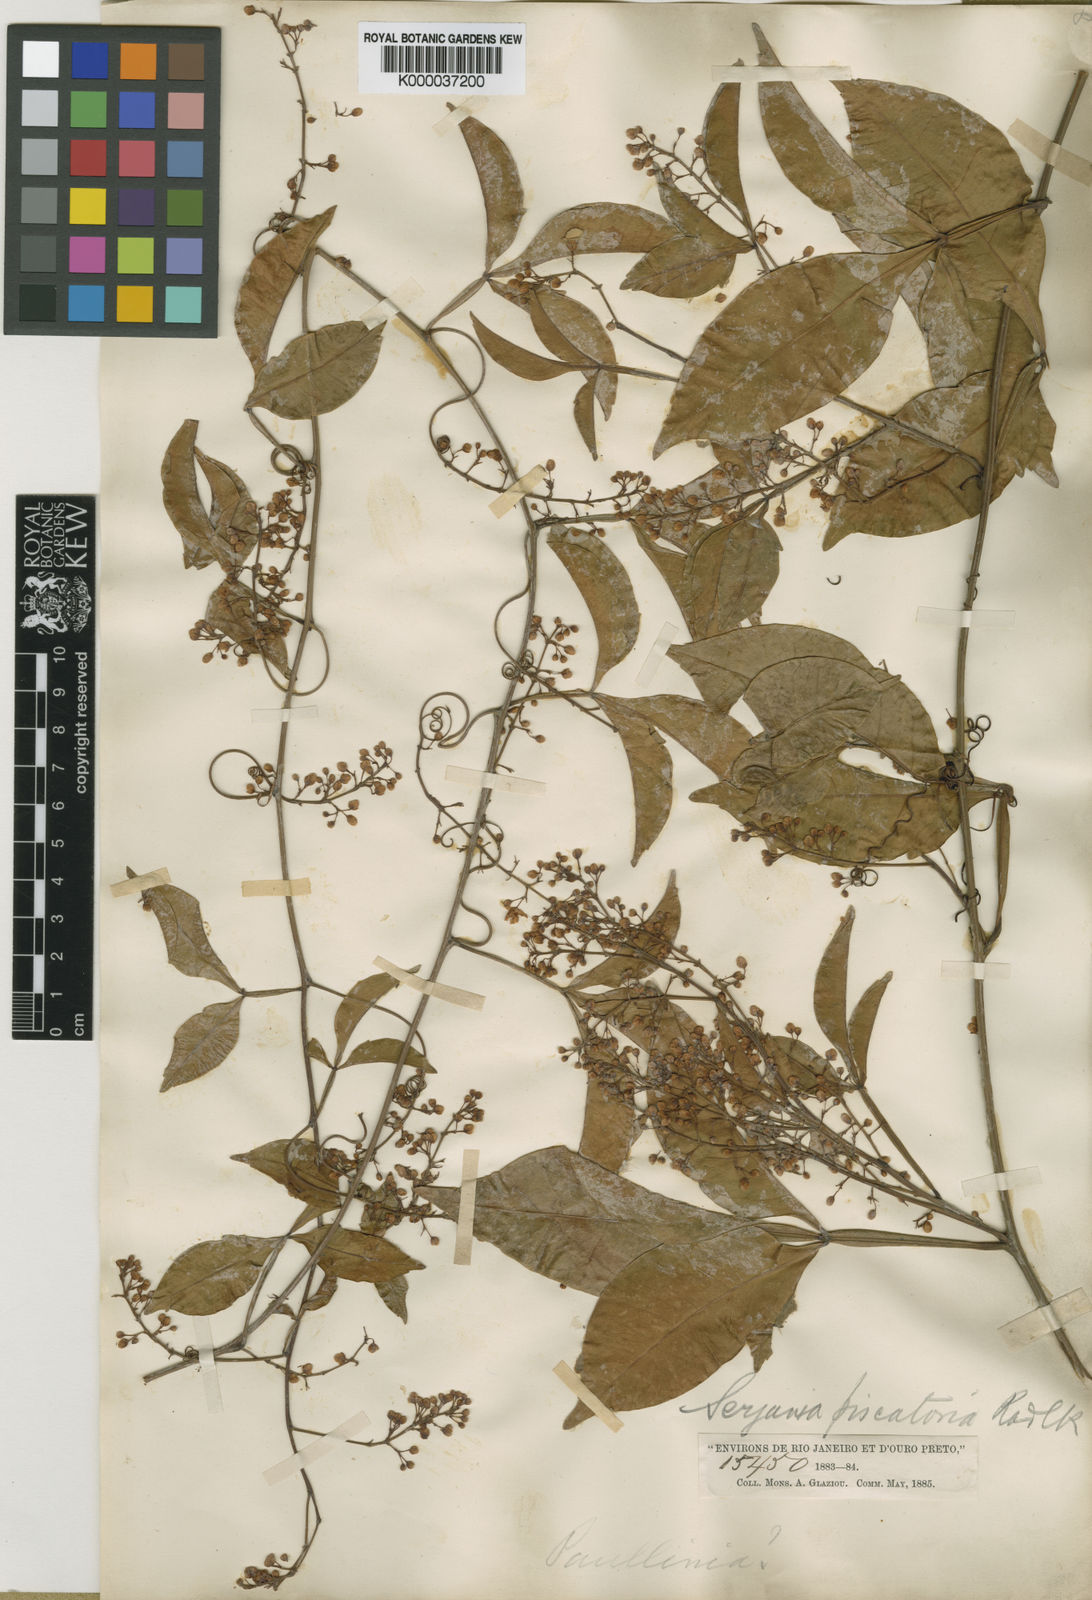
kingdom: Plantae
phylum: Tracheophyta
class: Magnoliopsida
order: Sapindales
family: Sapindaceae
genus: Serjania
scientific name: Serjania piscatoria
